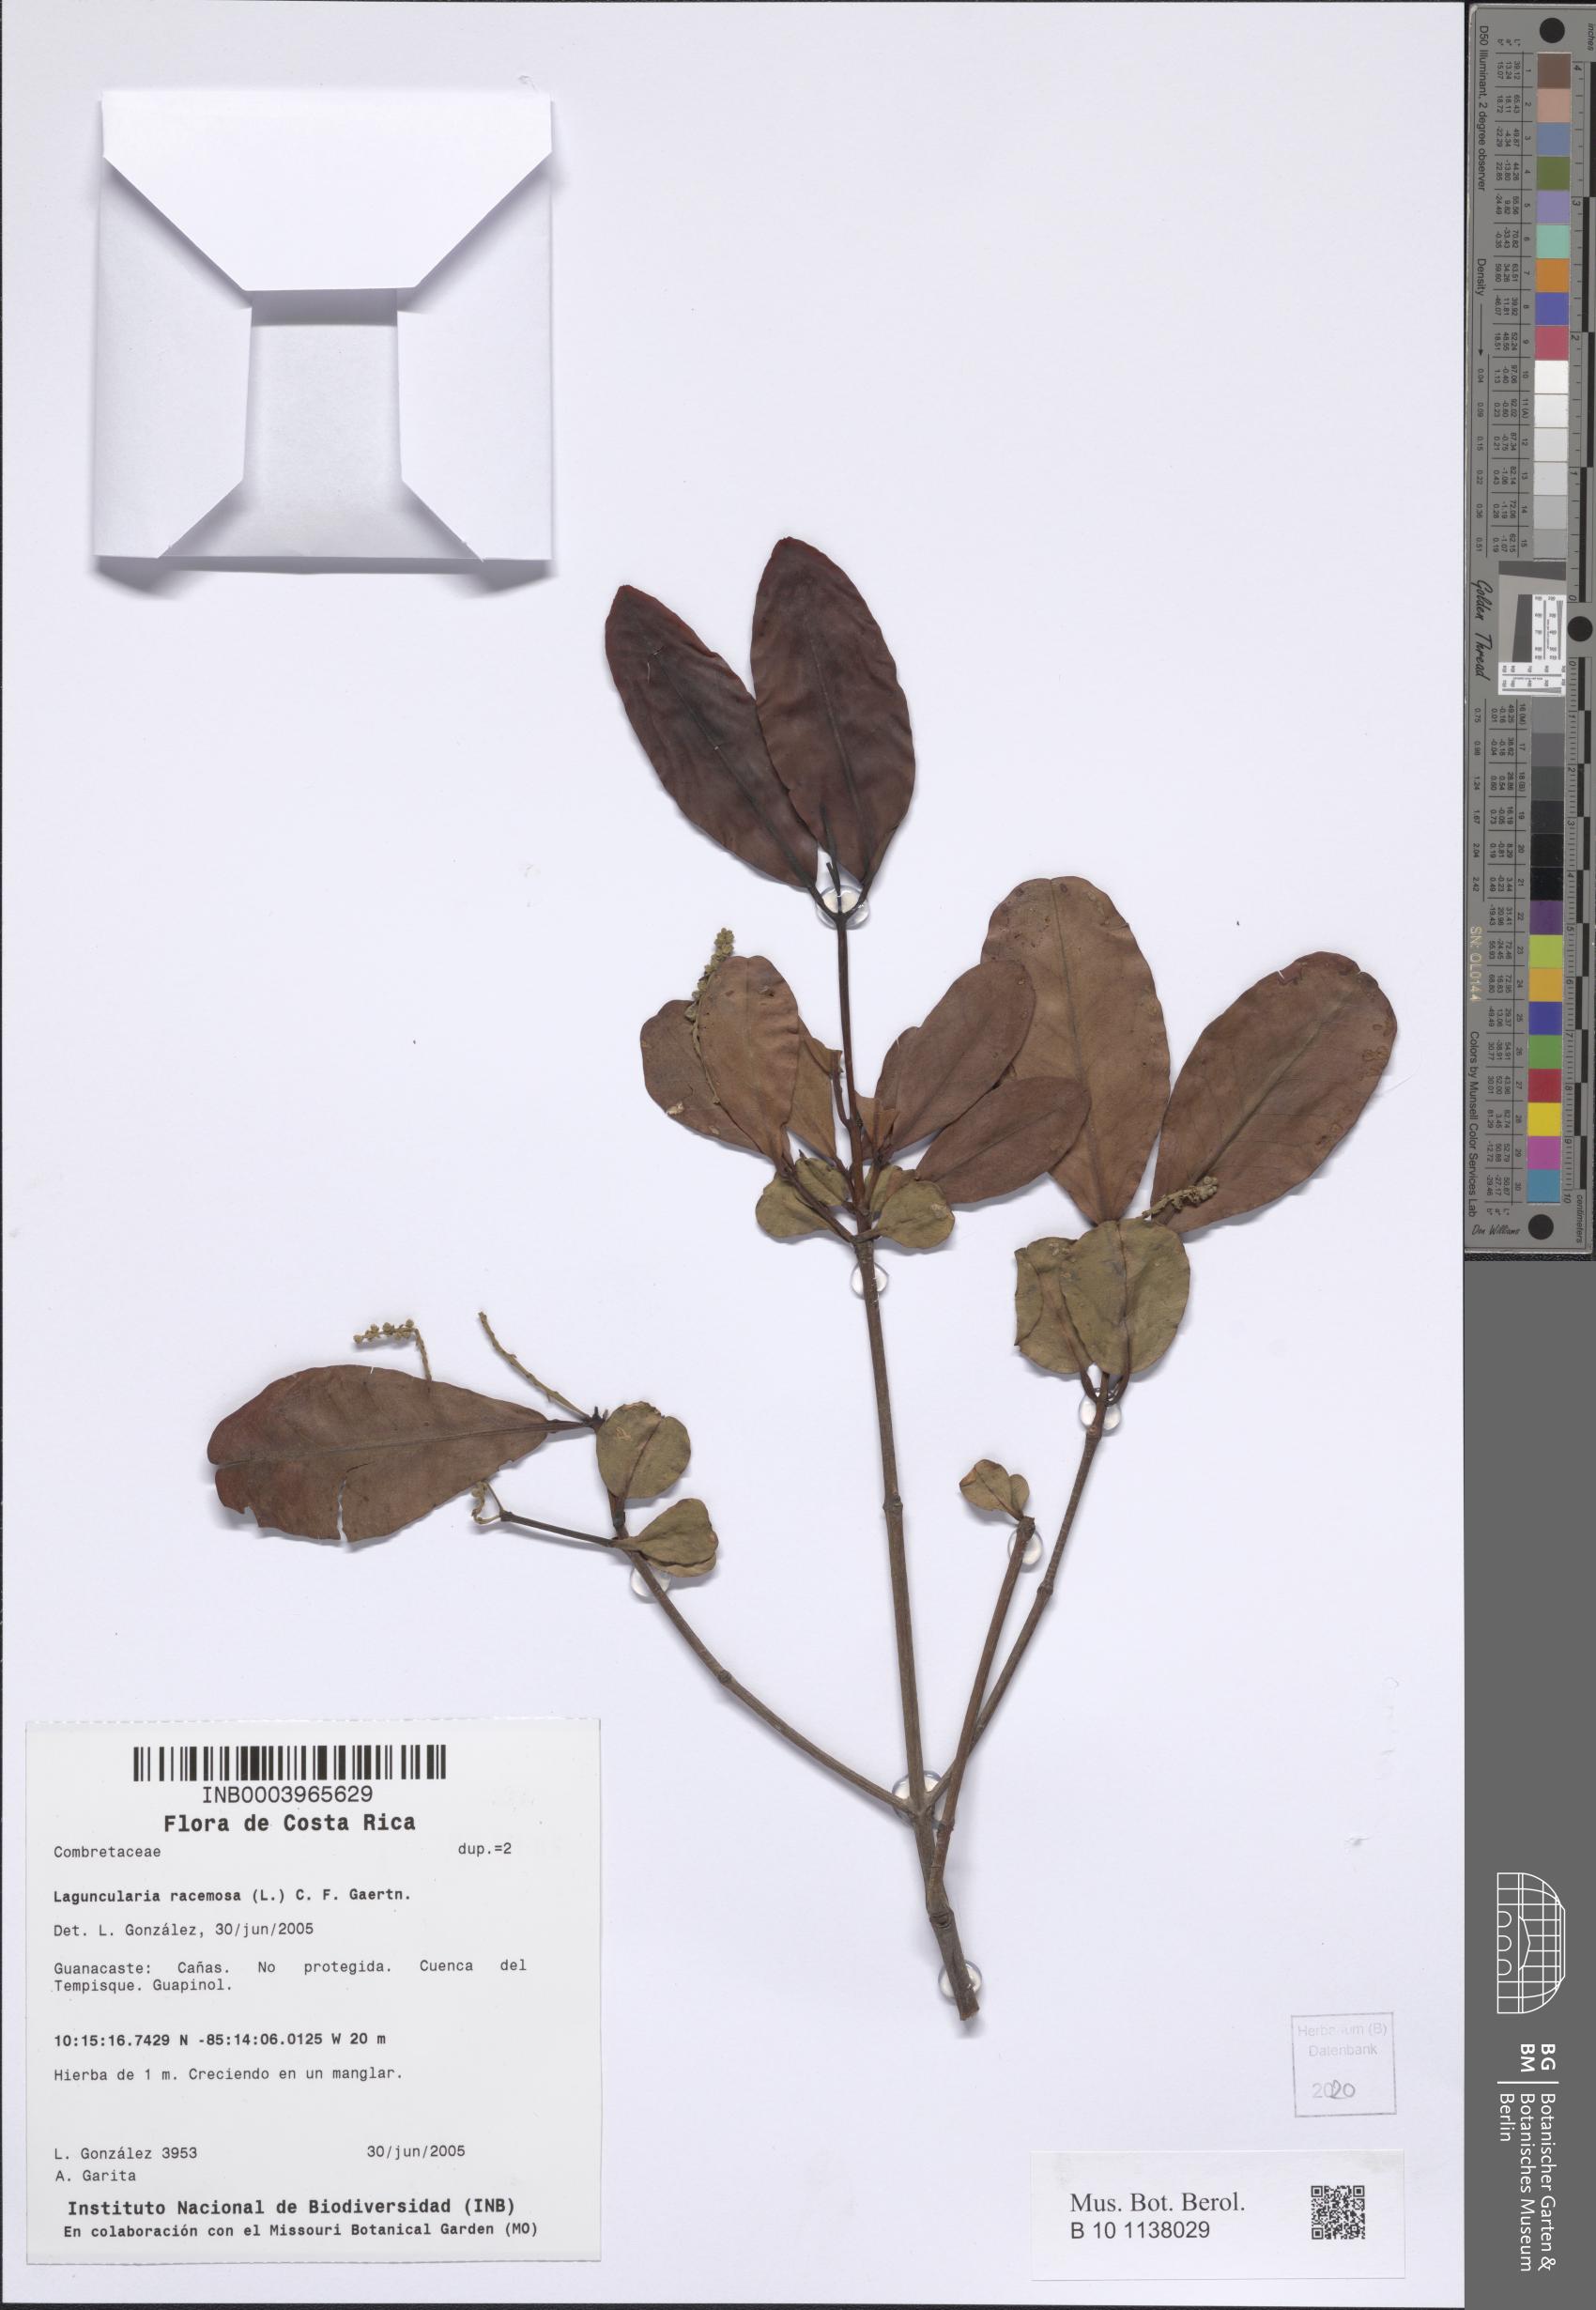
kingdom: Plantae
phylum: Tracheophyta
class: Magnoliopsida
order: Myrtales
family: Combretaceae
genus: Laguncularia
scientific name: Laguncularia racemosa
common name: White mangrove
